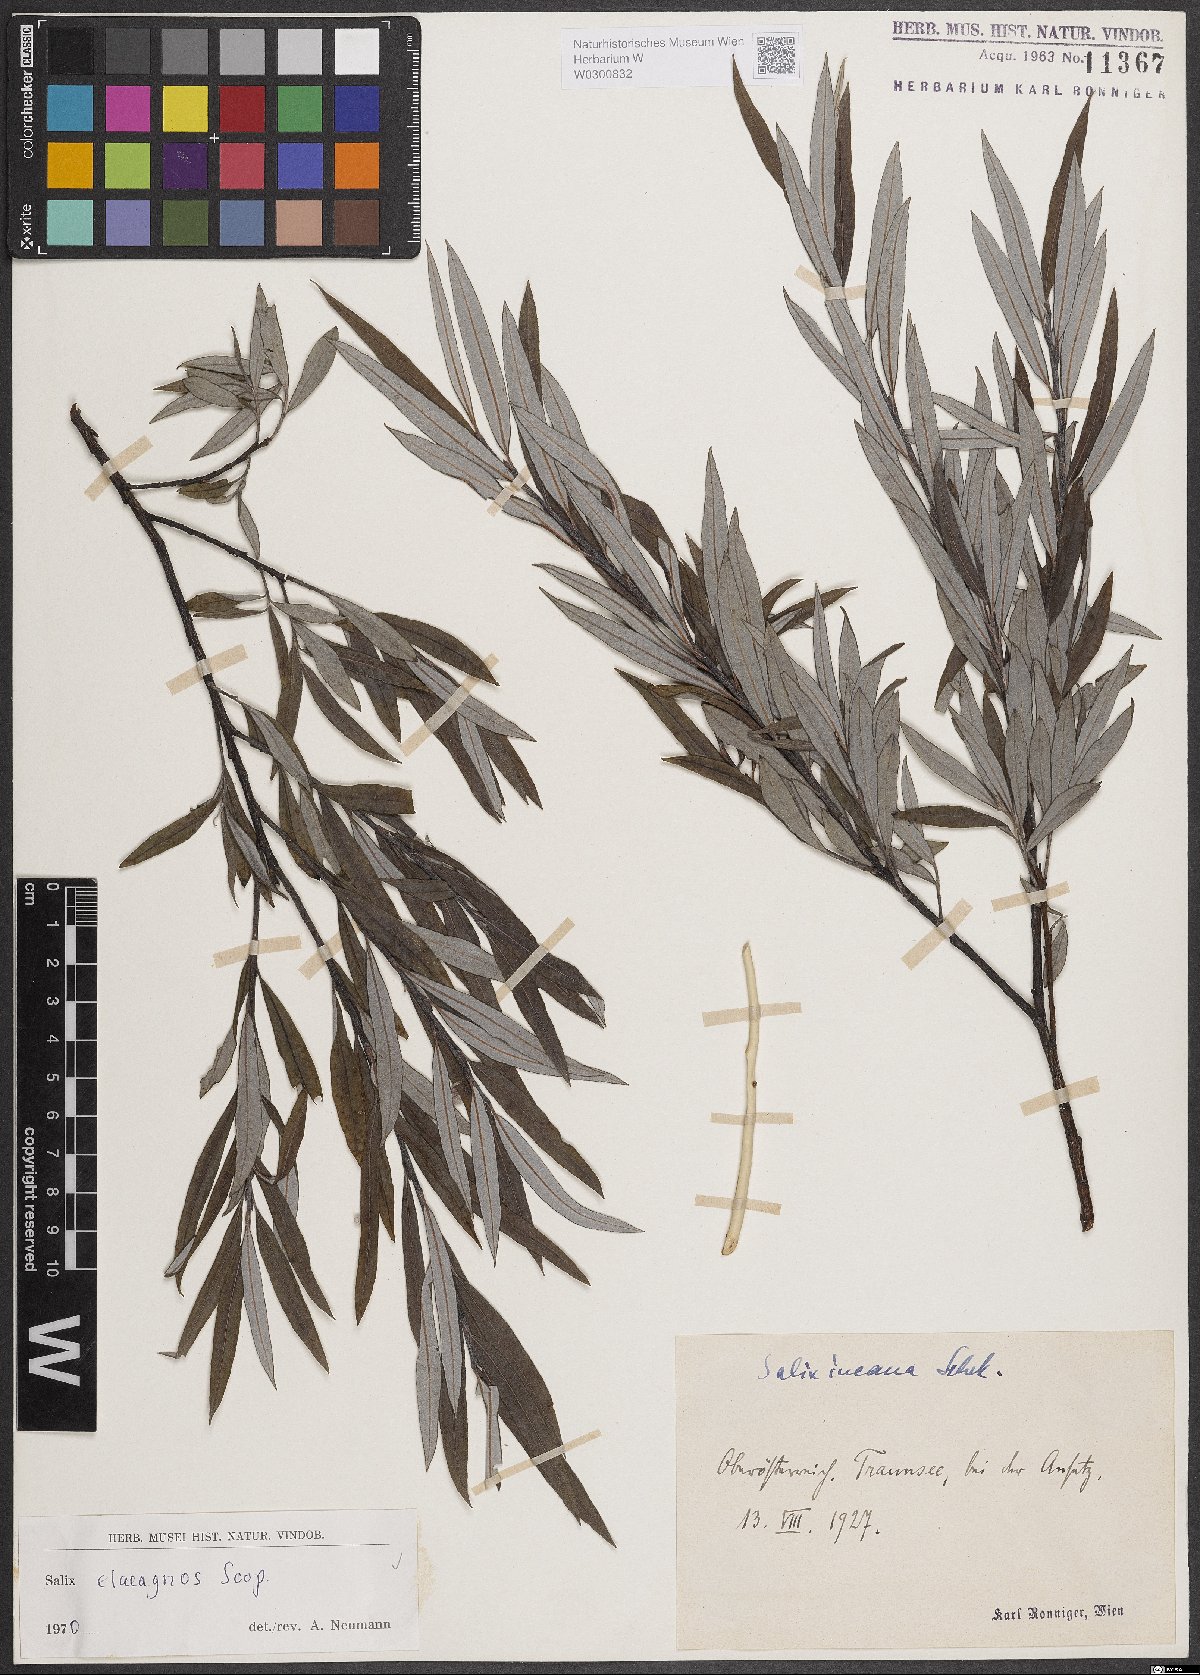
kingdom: Plantae
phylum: Tracheophyta
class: Magnoliopsida
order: Malpighiales
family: Salicaceae
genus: Salix
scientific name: Salix eleagnos
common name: Elaeagnus willow
